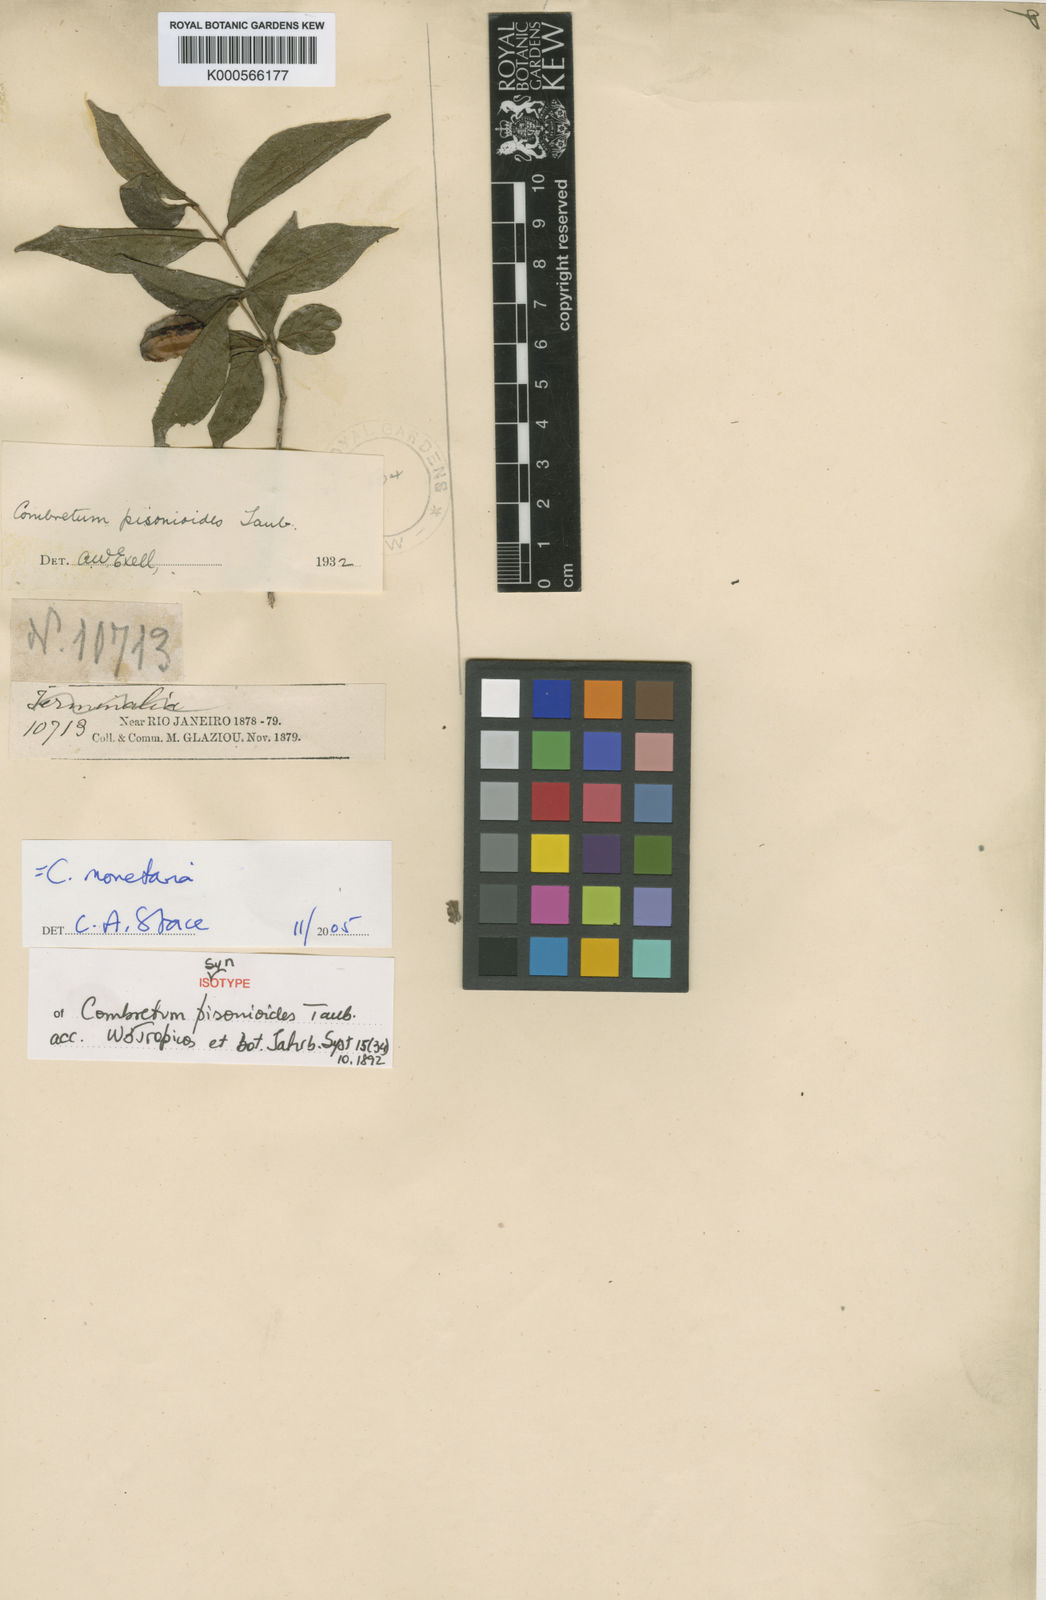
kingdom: Plantae
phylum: Tracheophyta
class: Magnoliopsida
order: Myrtales
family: Combretaceae
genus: Combretum
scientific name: Combretum monetaria
